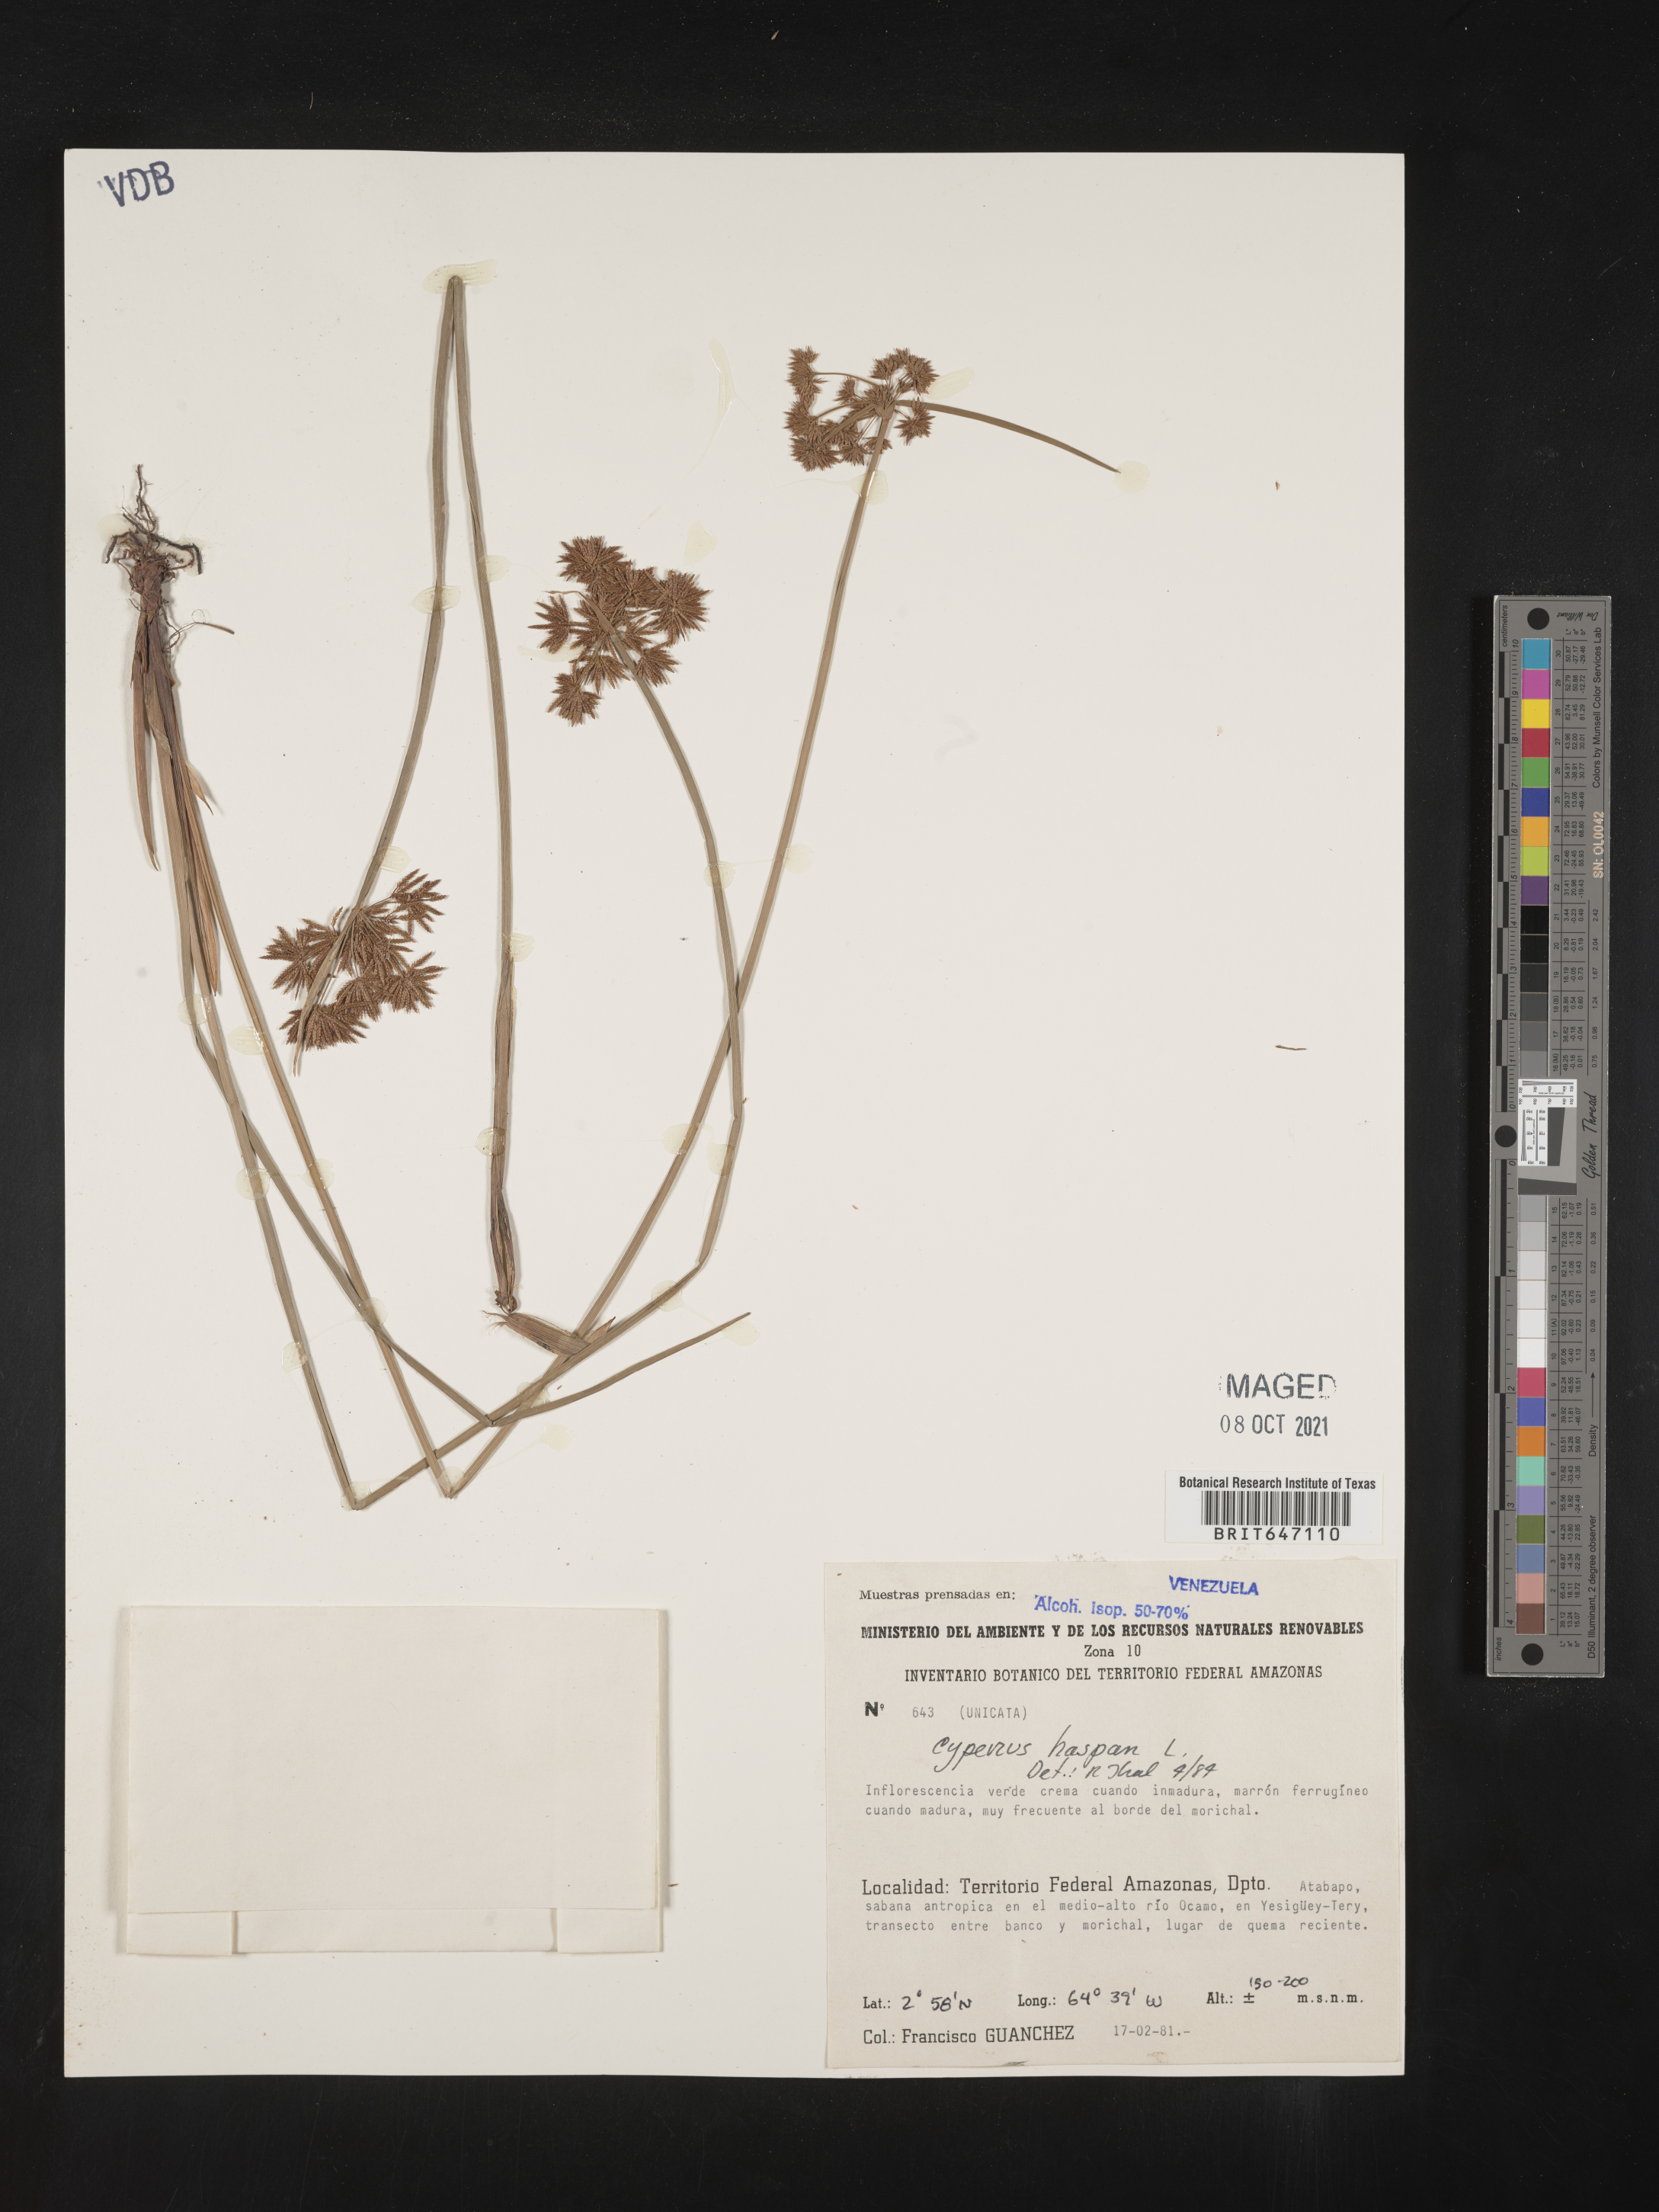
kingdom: Plantae
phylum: Tracheophyta
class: Liliopsida
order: Poales
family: Cyperaceae
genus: Cyperus
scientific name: Cyperus haspan
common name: Haspan flatsedge
